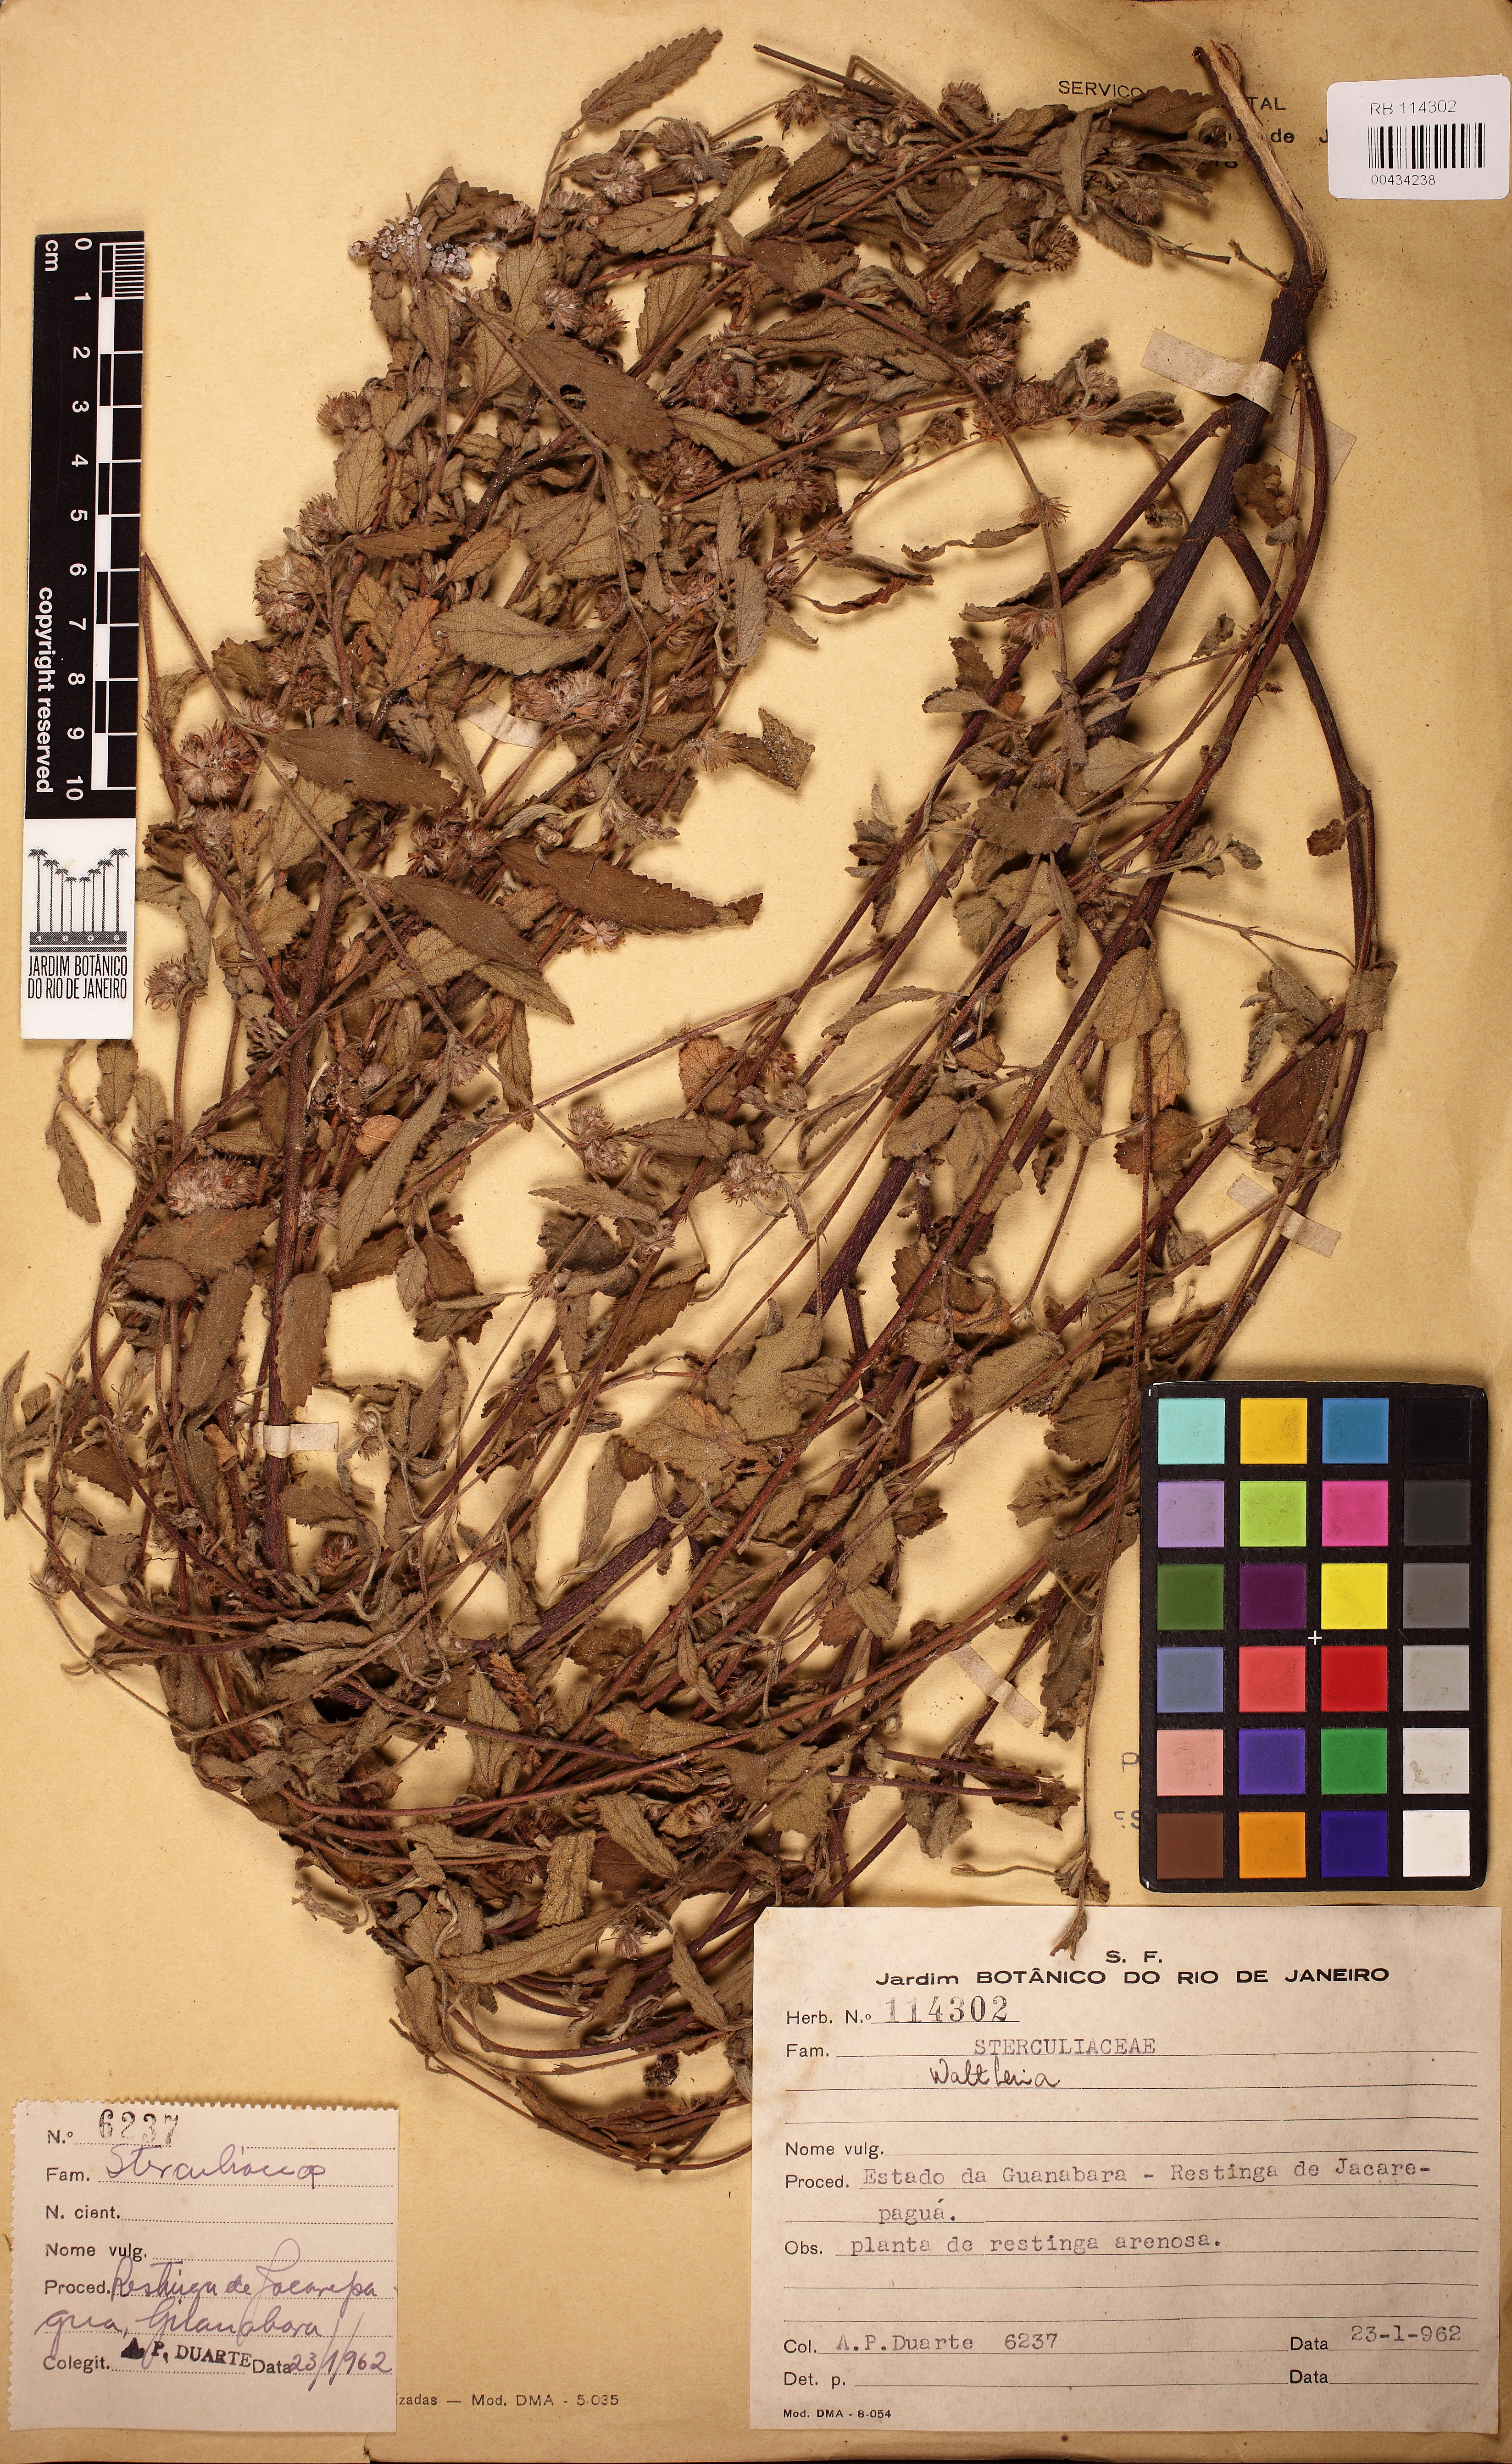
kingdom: Plantae
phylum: Tracheophyta
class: Magnoliopsida
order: Malvales
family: Malvaceae
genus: Waltheria
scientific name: Waltheria indica
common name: Leather-coat
